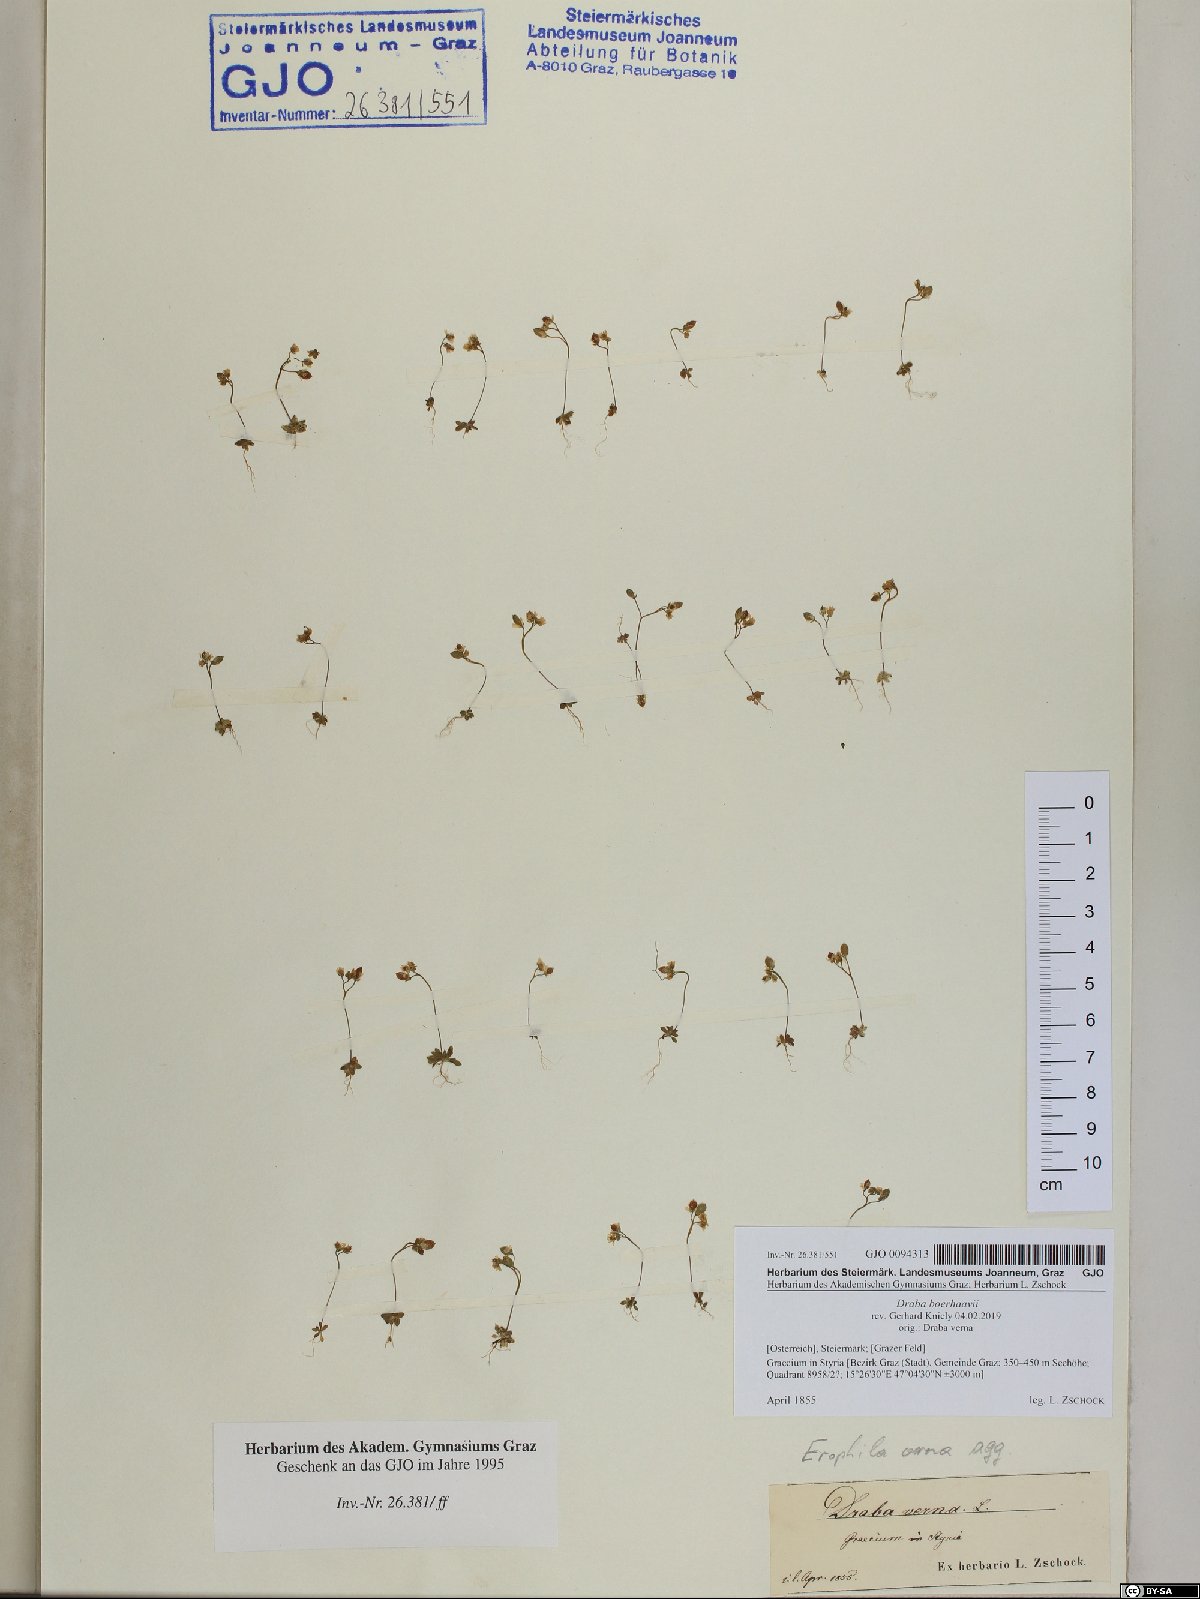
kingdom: Plantae
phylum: Tracheophyta
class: Magnoliopsida
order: Brassicales
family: Brassicaceae
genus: Draba
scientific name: Draba verna
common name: Spring draba
